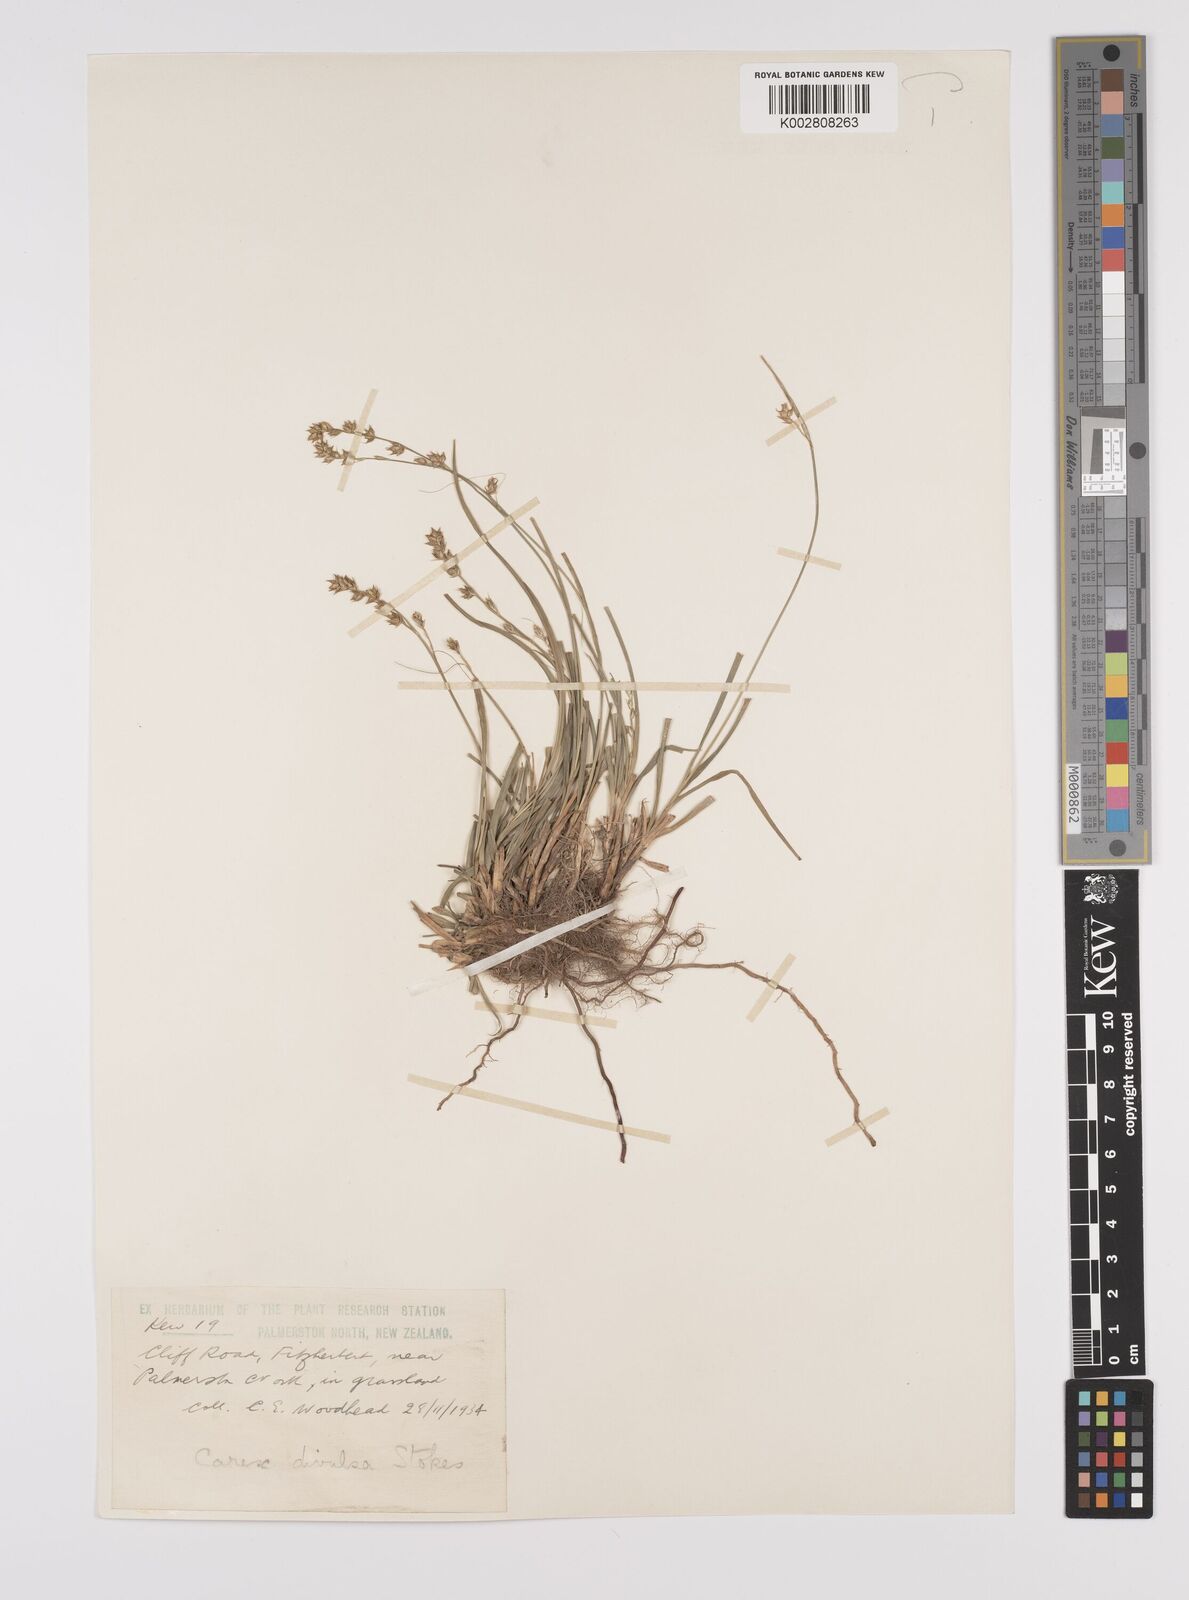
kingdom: Plantae
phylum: Tracheophyta
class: Liliopsida
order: Poales
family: Cyperaceae
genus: Carex
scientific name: Carex divulsa
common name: Grassland sedge
